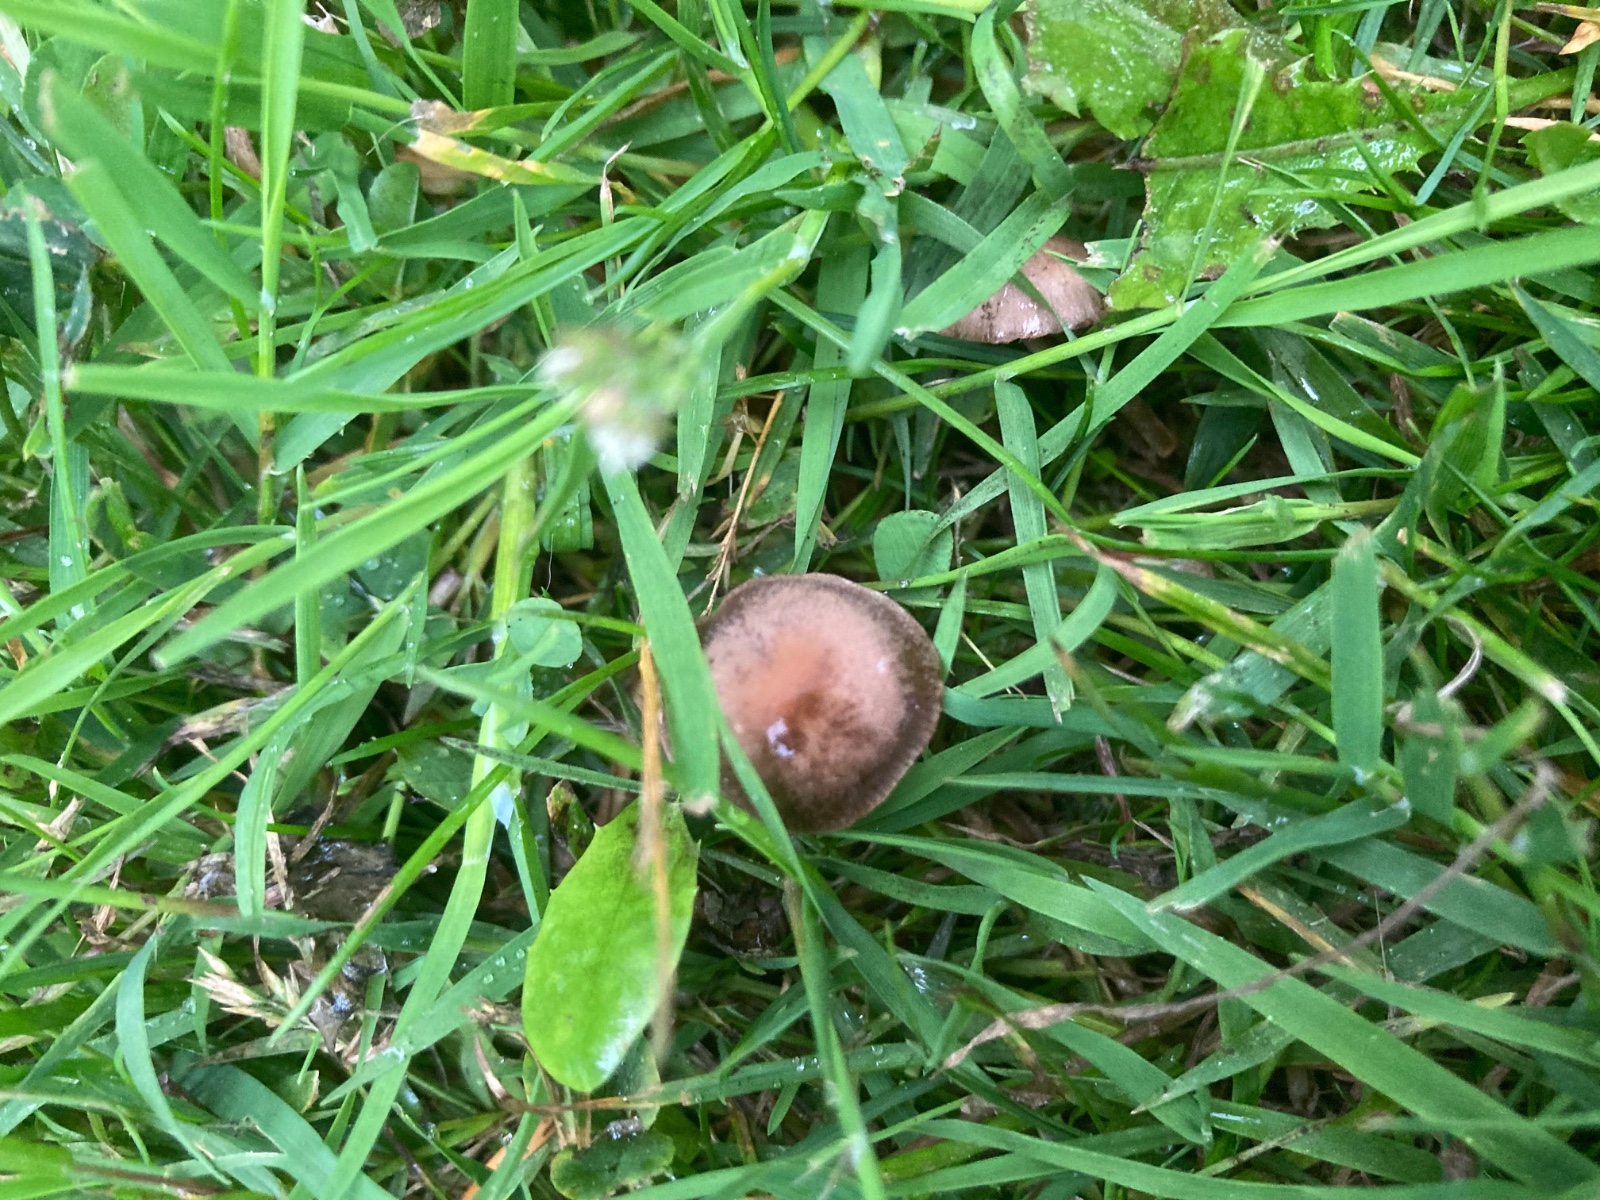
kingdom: Fungi
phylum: Basidiomycota
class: Agaricomycetes
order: Agaricales
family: Bolbitiaceae
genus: Panaeolina
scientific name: Panaeolina foenisecii
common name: høslætsvamp
